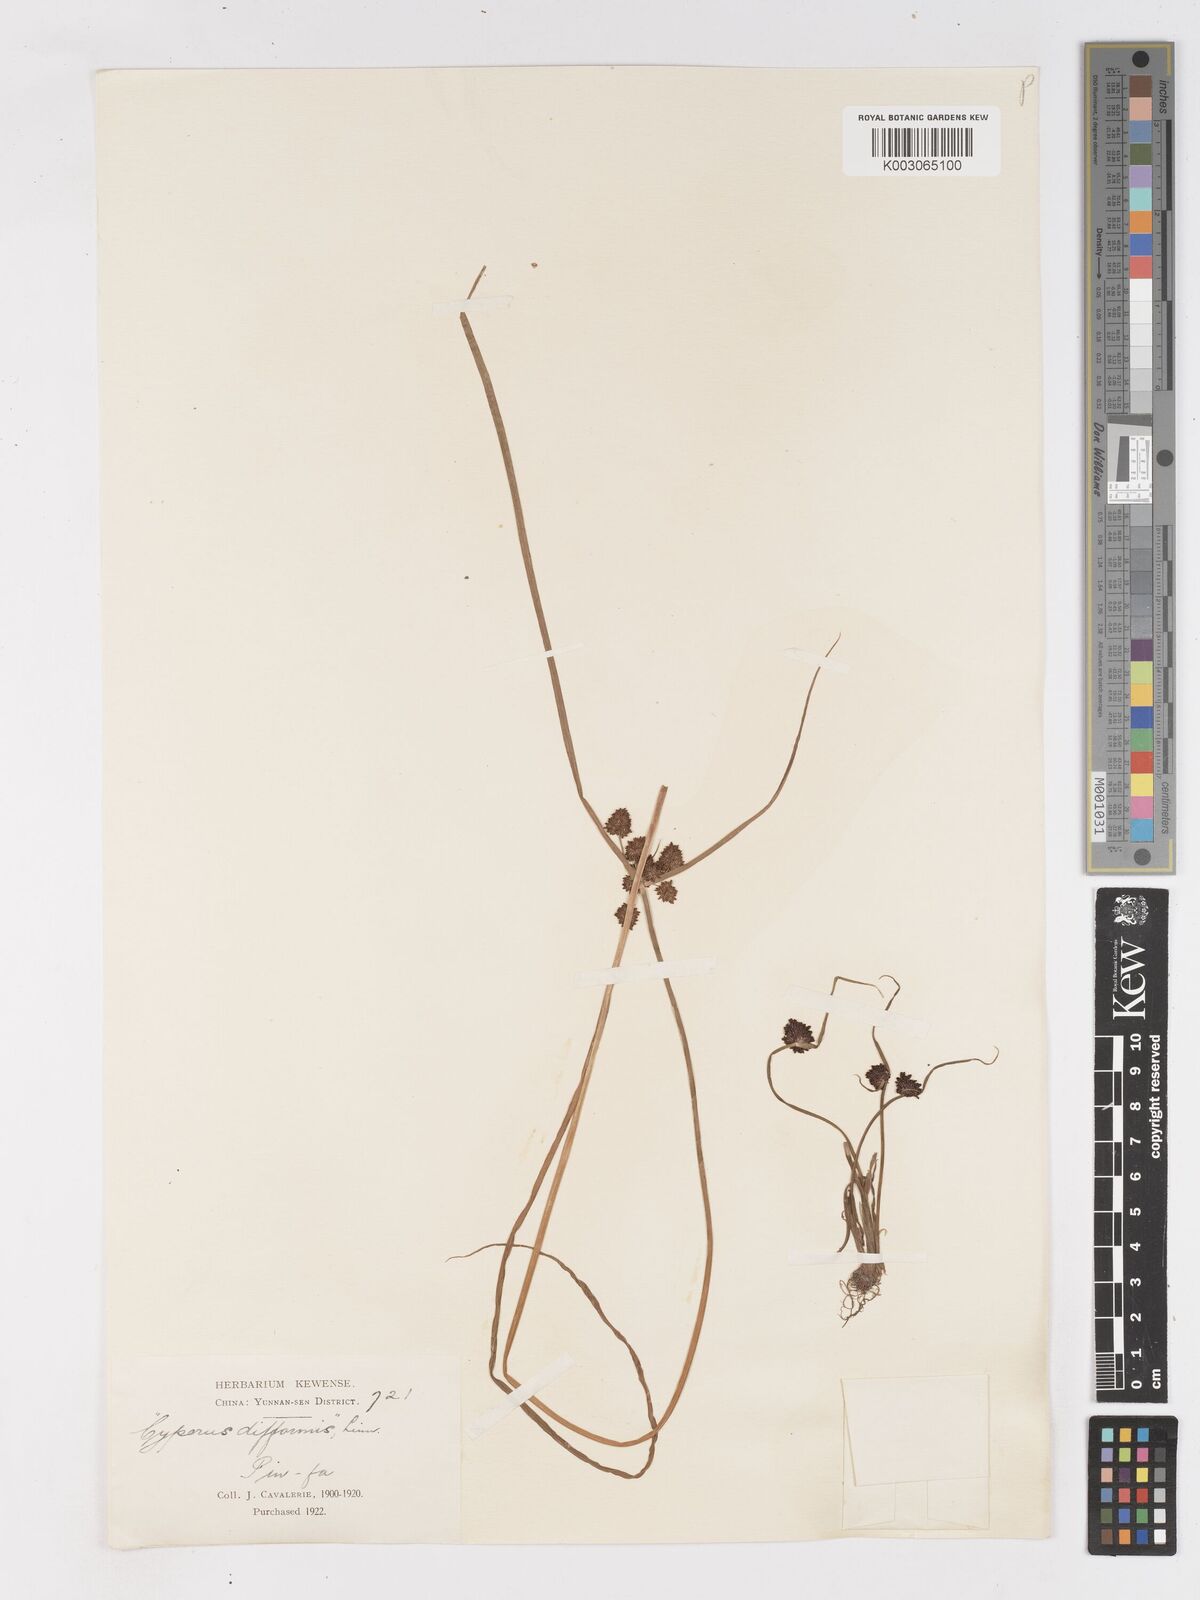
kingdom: Plantae
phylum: Tracheophyta
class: Liliopsida
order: Poales
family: Cyperaceae
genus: Cyperus
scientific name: Cyperus difformis
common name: Variable flatsedge
